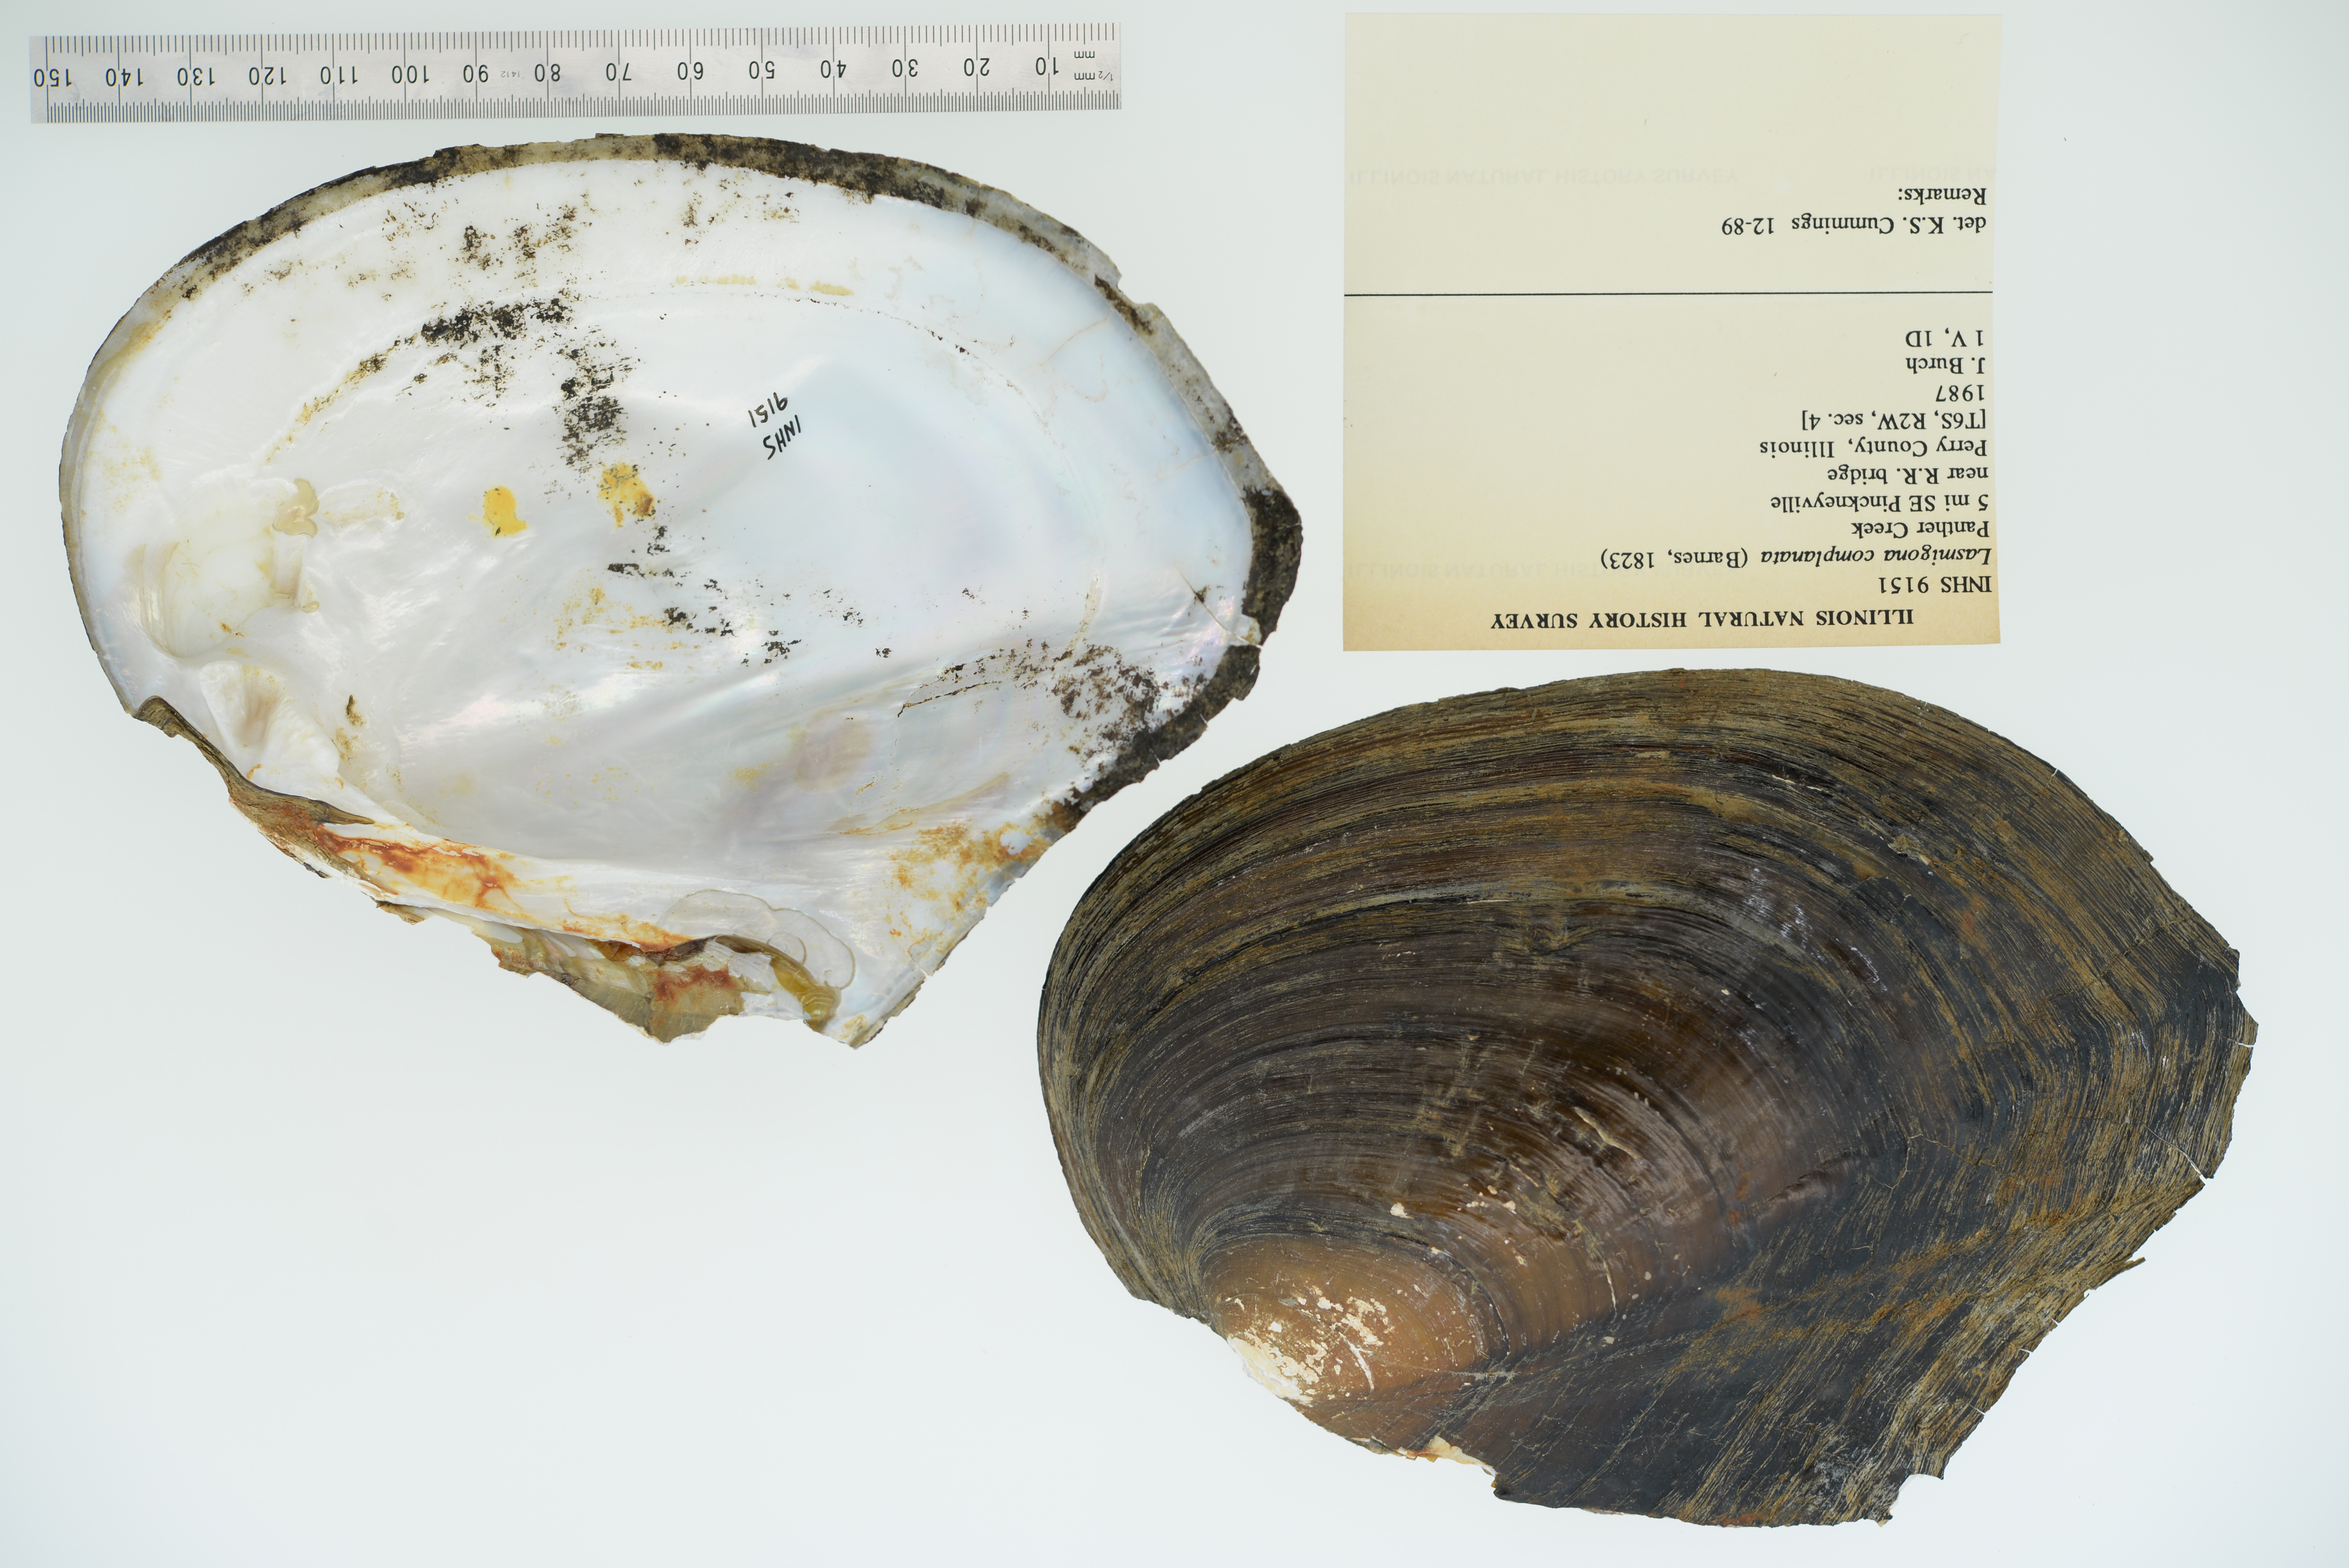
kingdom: Animalia
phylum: Mollusca
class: Bivalvia
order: Unionida
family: Unionidae
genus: Lasmigona
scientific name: Lasmigona complanata
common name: White heelsplitter
